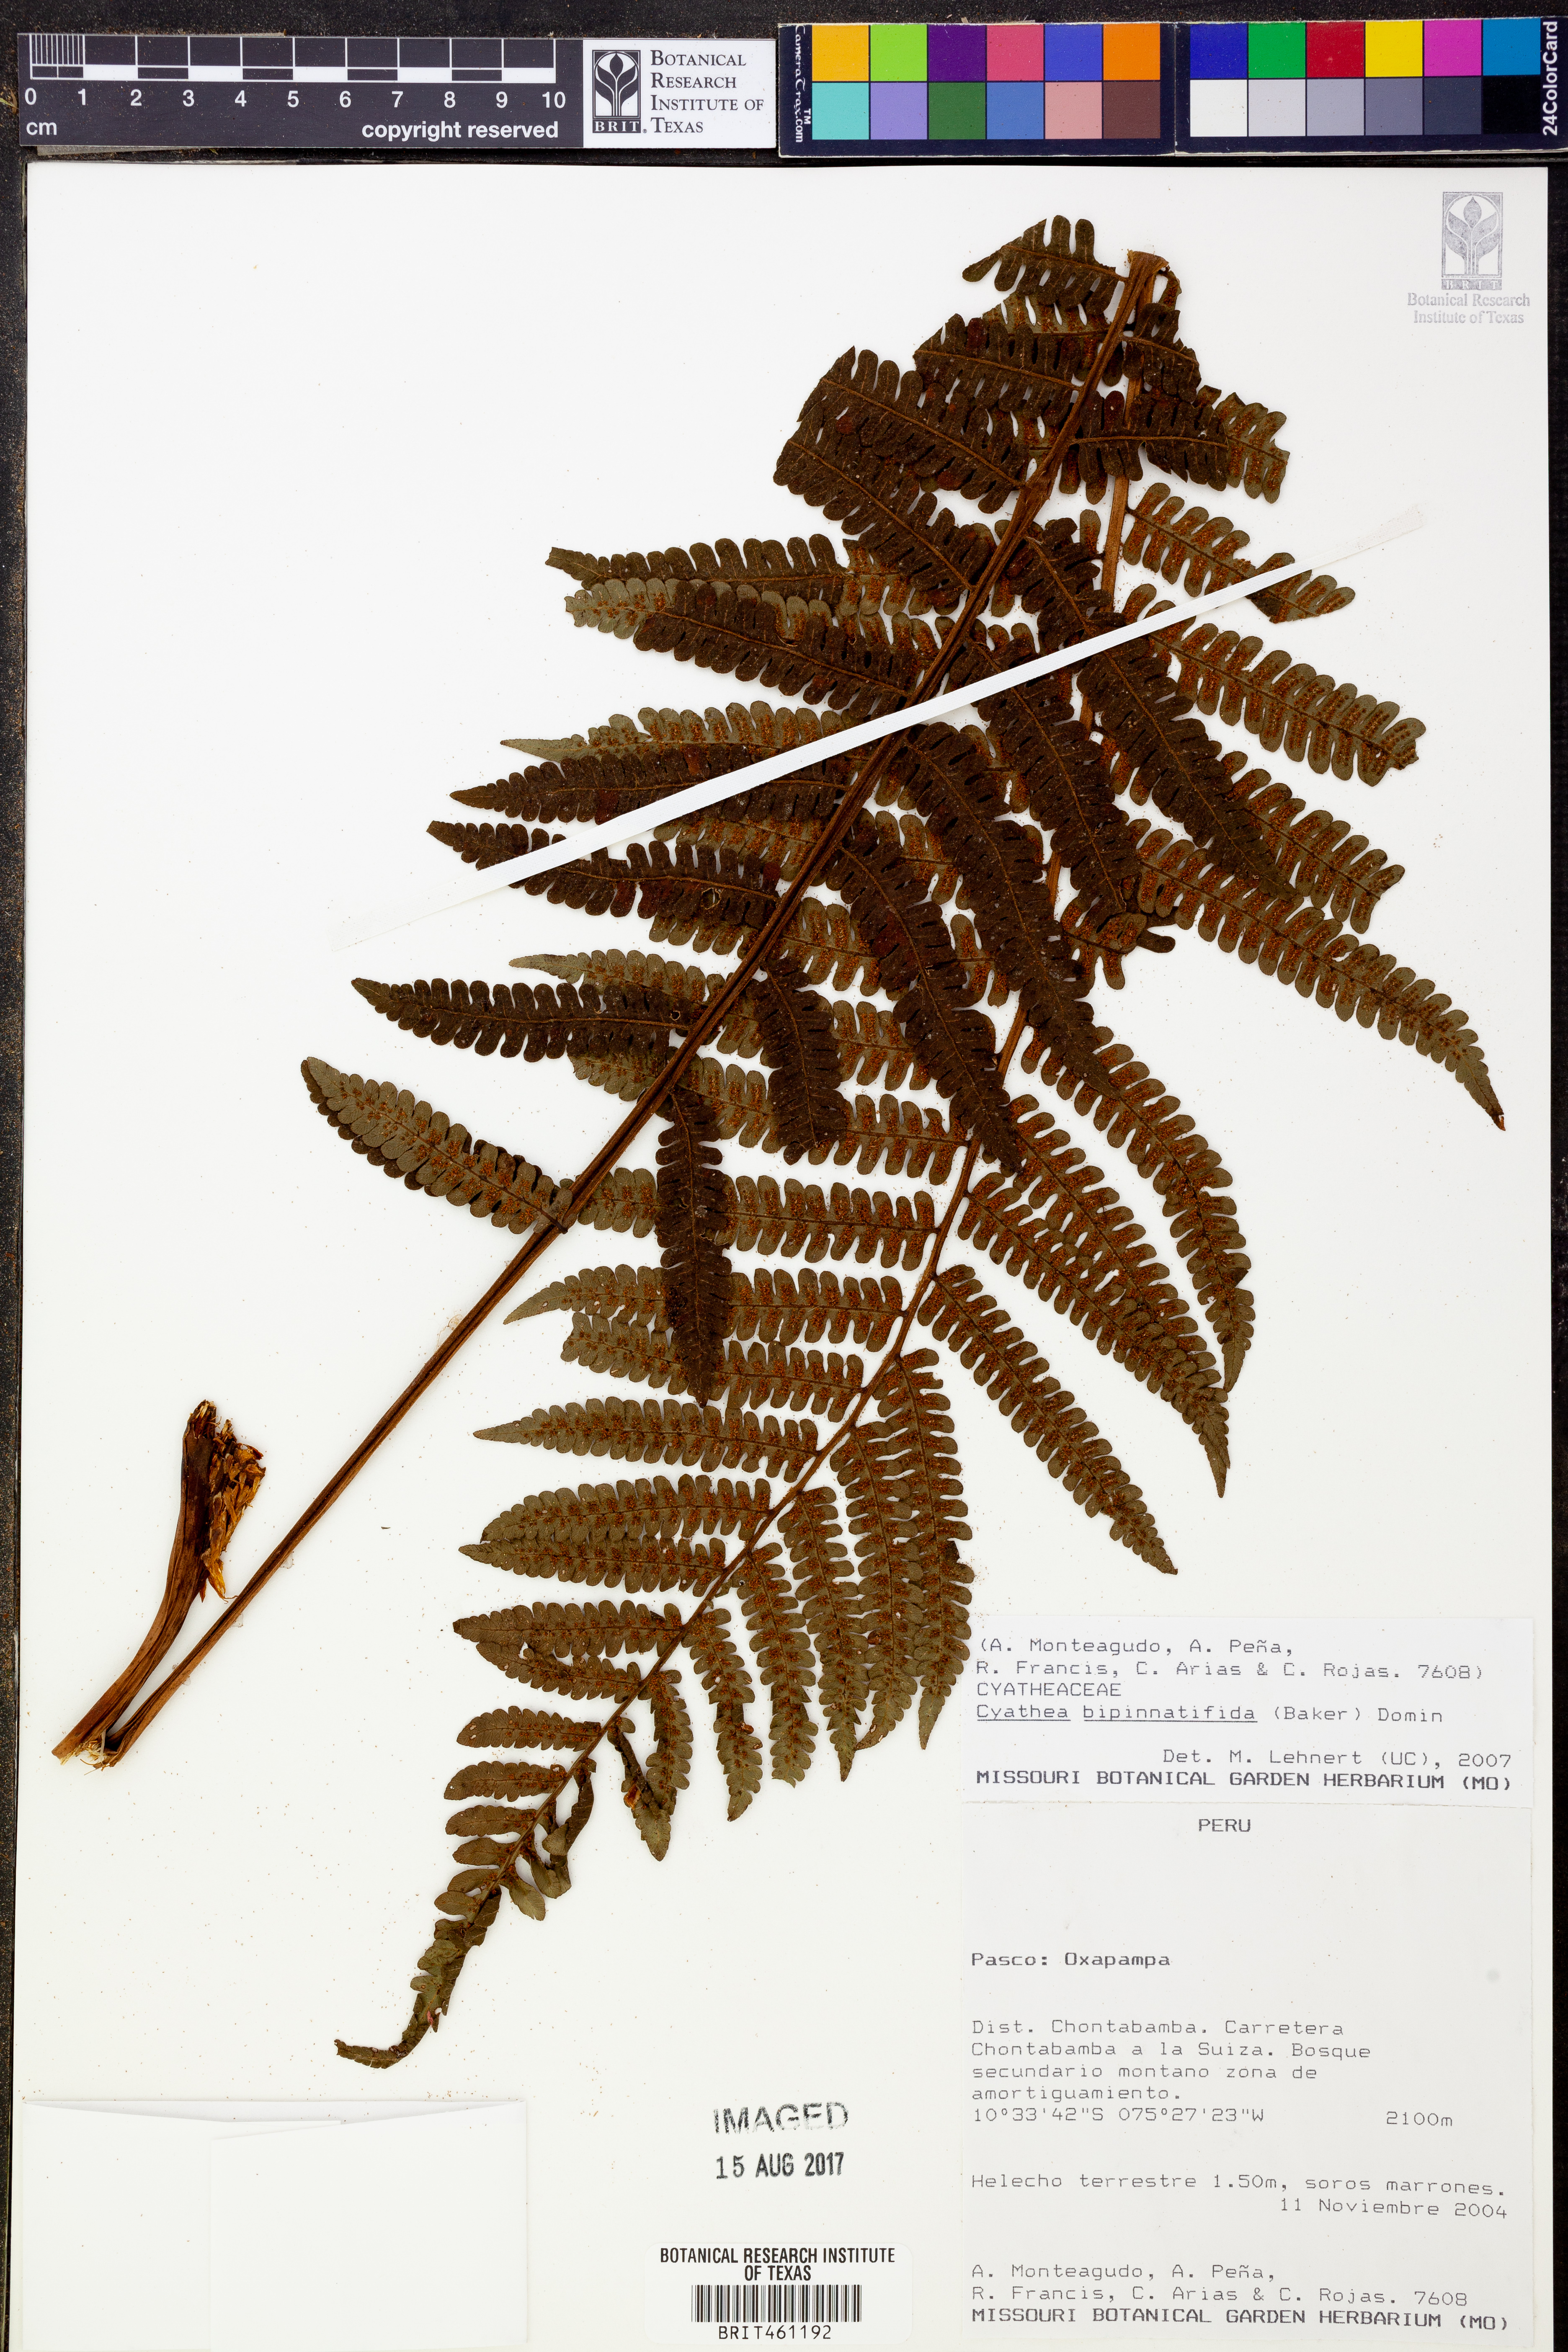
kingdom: Plantae
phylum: Tracheophyta
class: Polypodiopsida
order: Cyatheales
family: Cyatheaceae
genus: Cyathea
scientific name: Cyathea bipinnatifida
